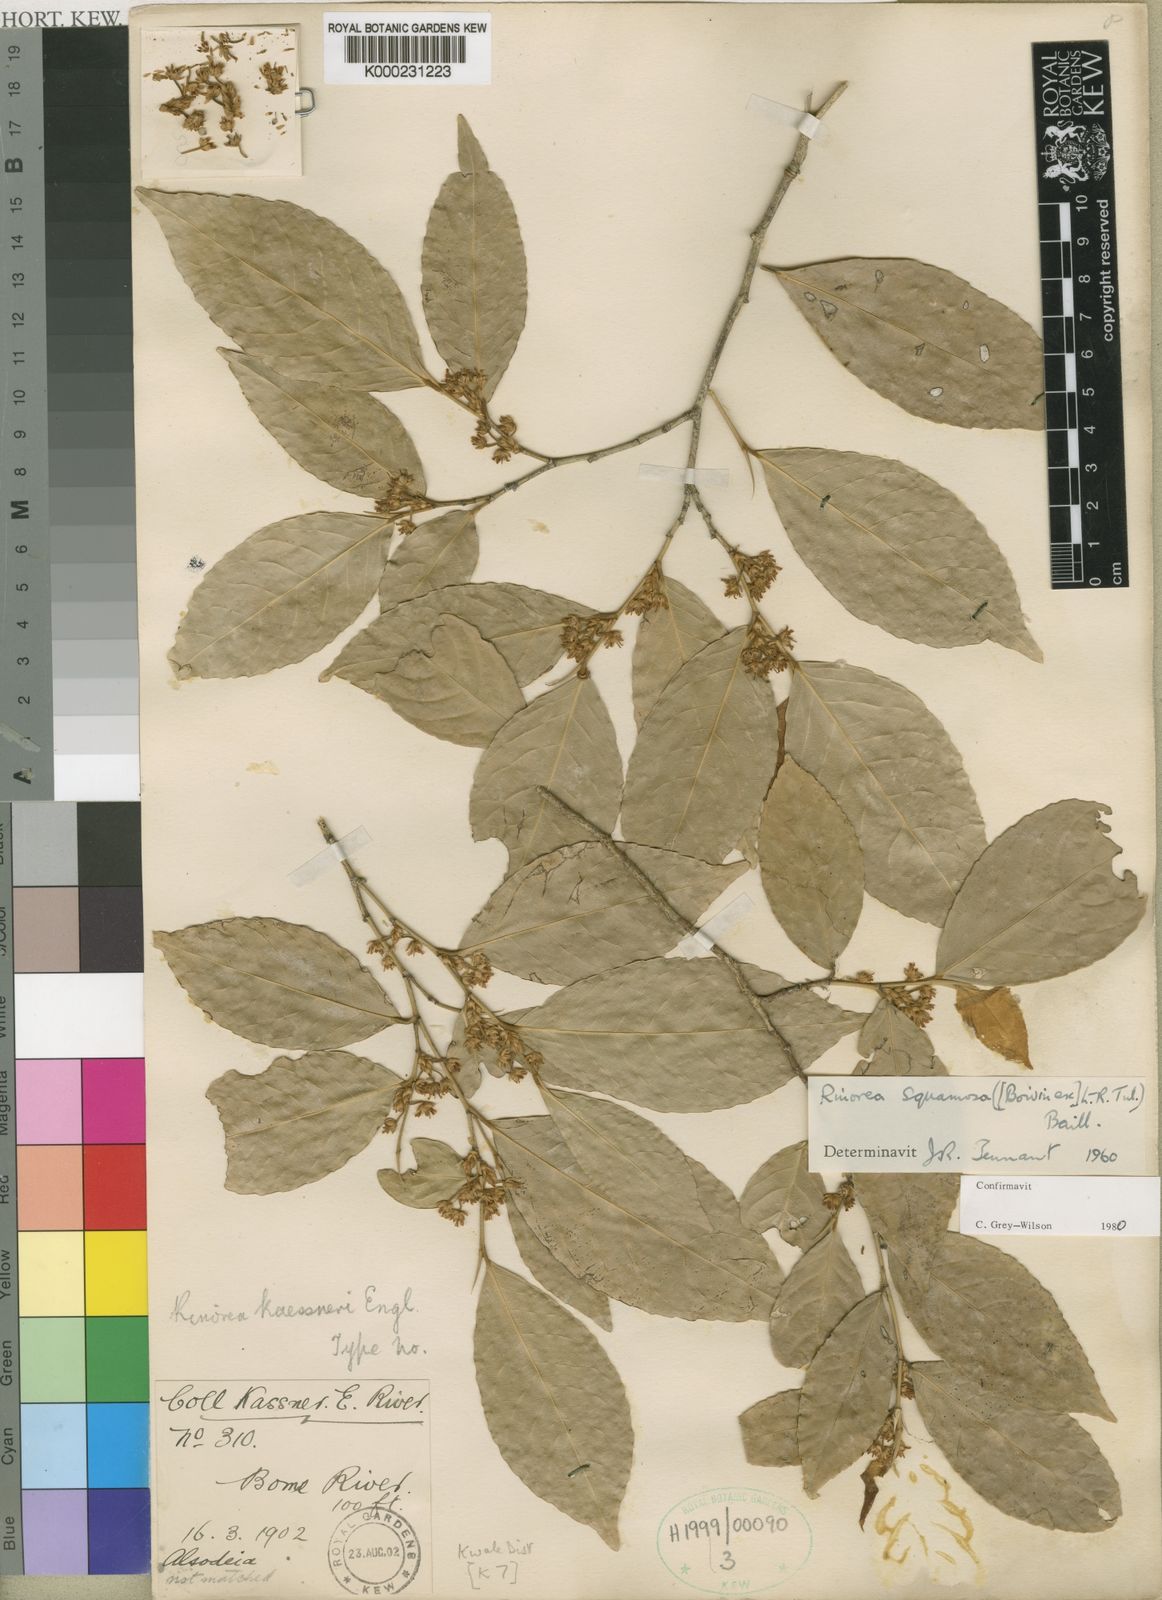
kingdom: Plantae
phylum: Tracheophyta
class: Magnoliopsida
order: Malpighiales
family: Violaceae
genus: Rinorea
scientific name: Rinorea squamosa
